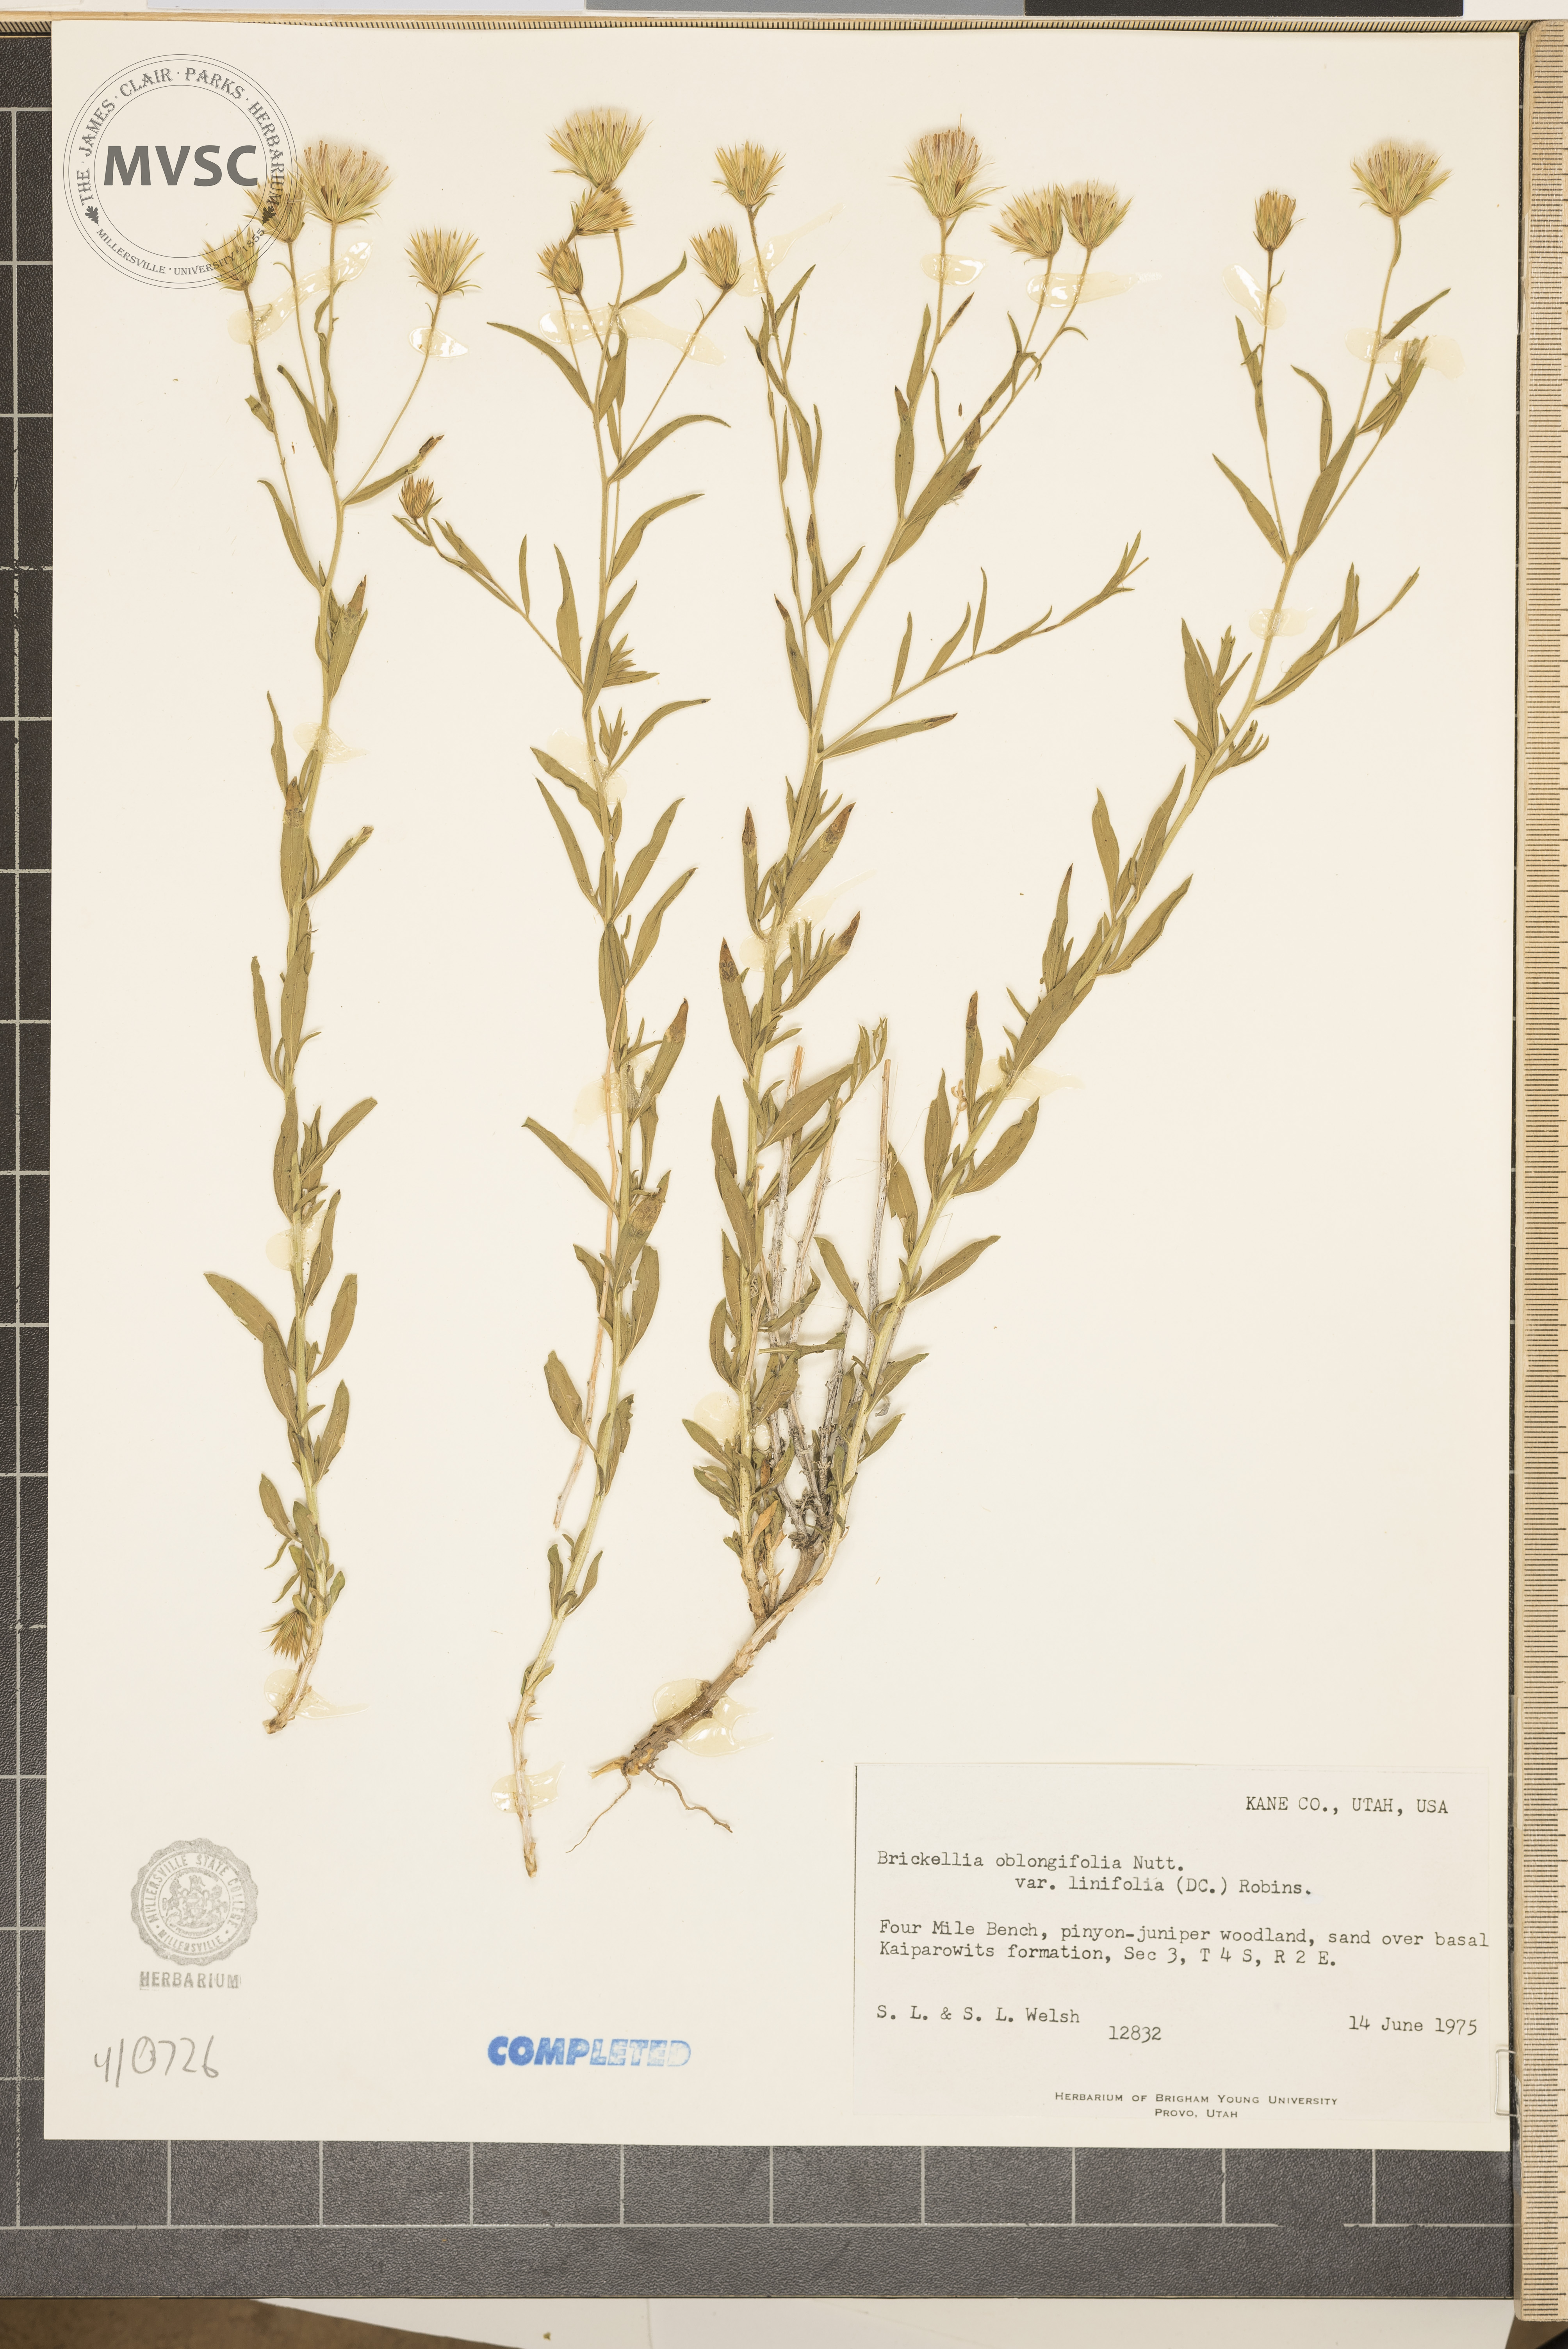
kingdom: Plantae
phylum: Tracheophyta
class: Magnoliopsida
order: Asterales
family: Asteraceae
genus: Brickellia
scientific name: Brickellia oblongifolia
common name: Mojave brickellbush
